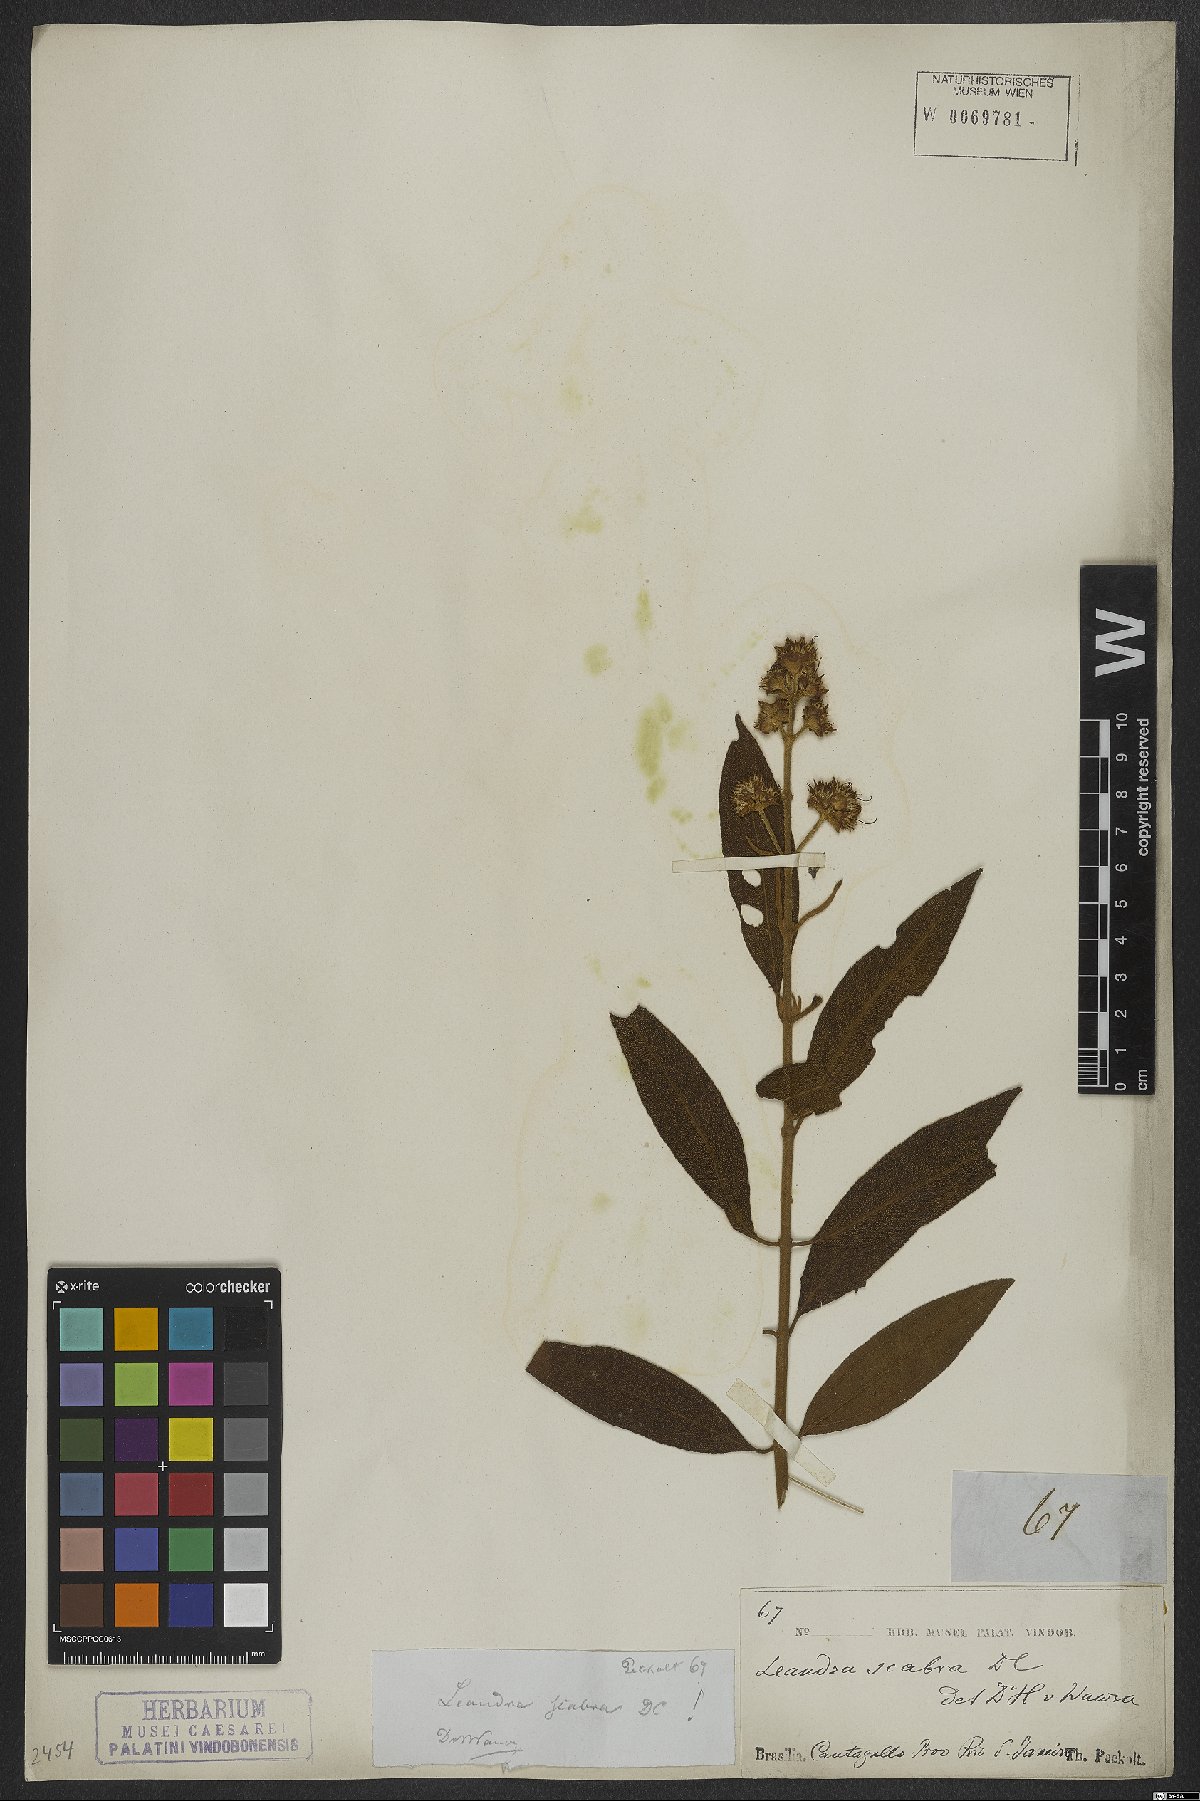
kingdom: Plantae
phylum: Tracheophyta
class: Magnoliopsida
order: Myrtales
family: Melastomataceae
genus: Miconia
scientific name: Miconia melastomoides
